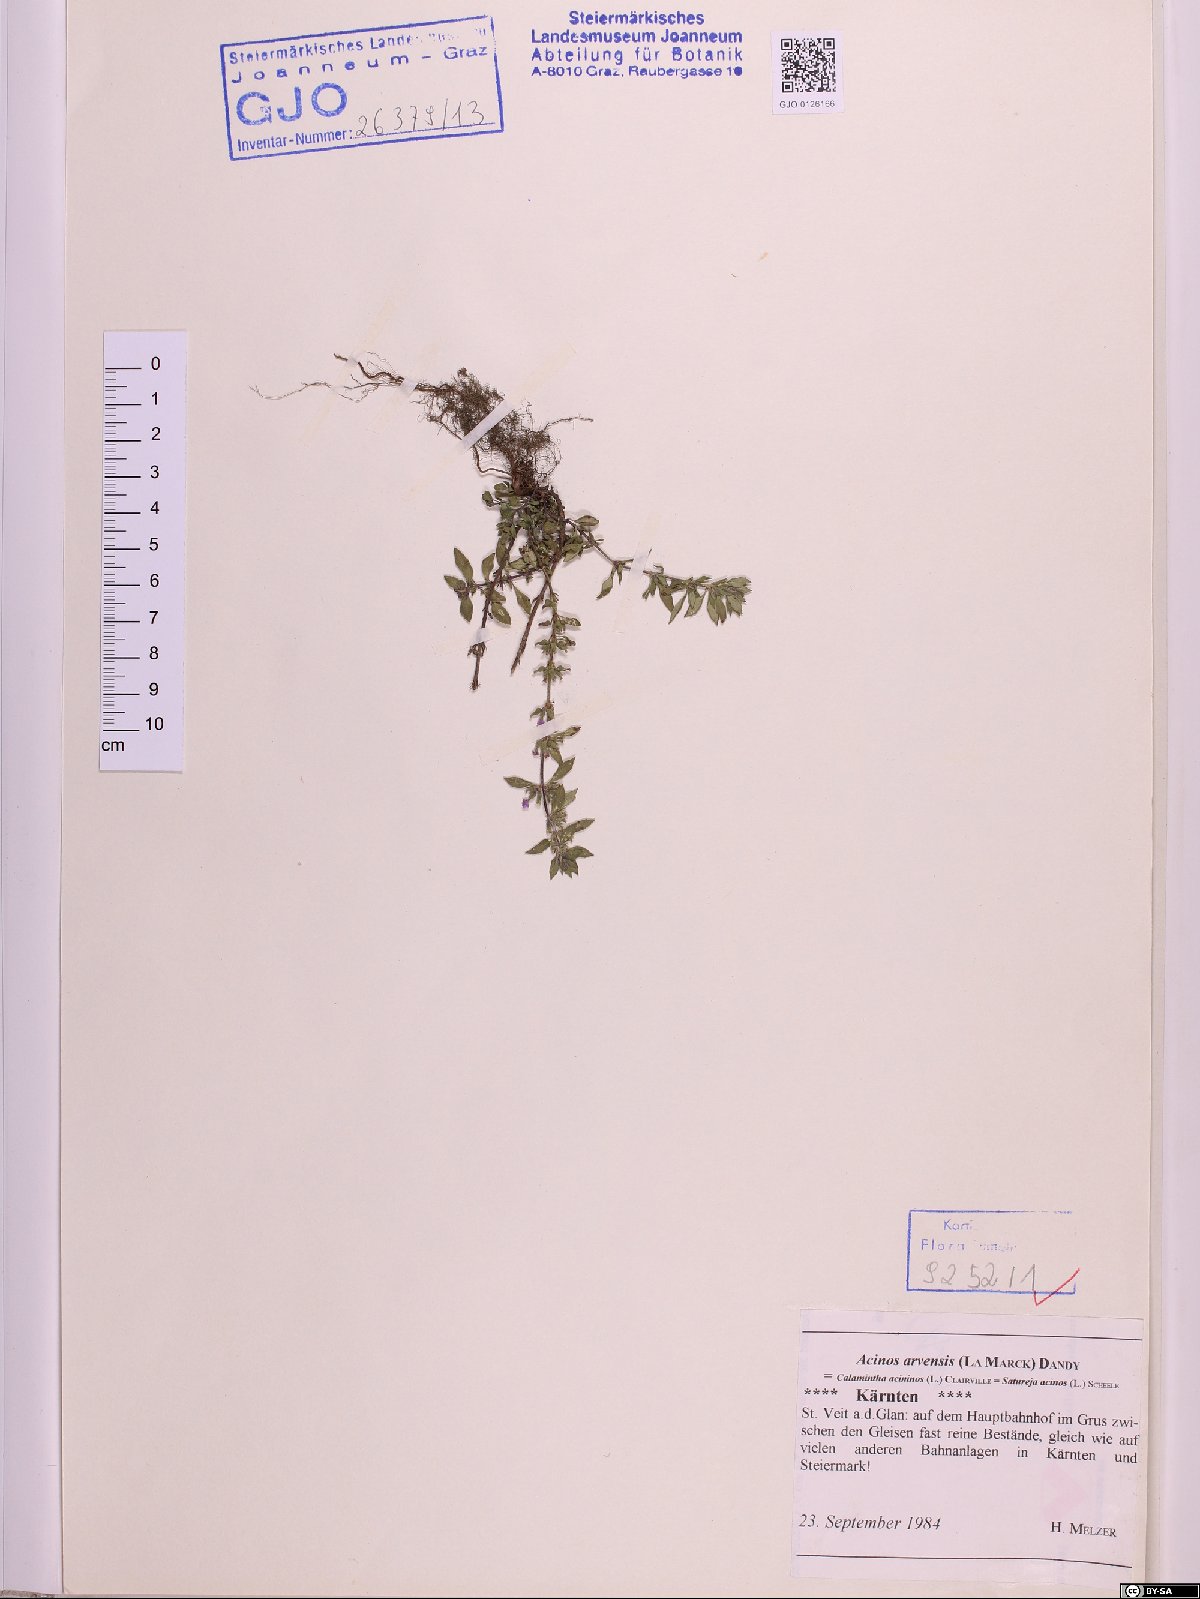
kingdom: Plantae
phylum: Tracheophyta
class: Magnoliopsida
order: Lamiales
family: Lamiaceae
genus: Clinopodium
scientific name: Clinopodium acinos
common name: Basil thyme
